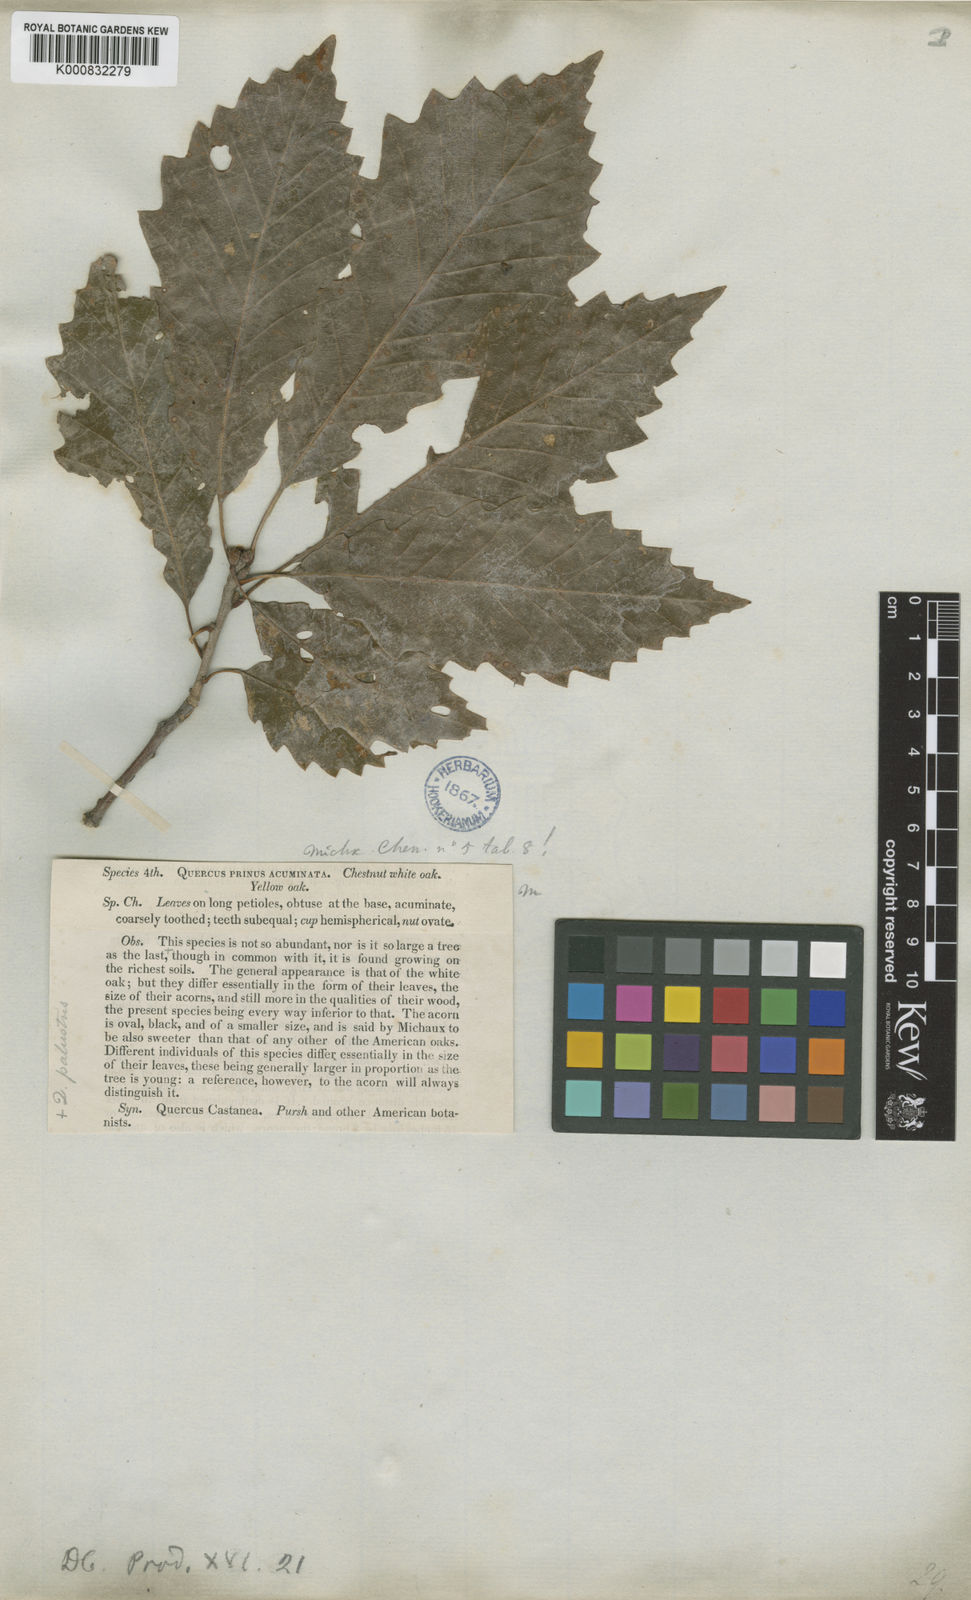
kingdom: Plantae
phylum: Tracheophyta
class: Magnoliopsida
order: Fagales
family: Fagaceae
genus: Quercus
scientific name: Quercus muehlenbergii
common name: Chinkapin oak
